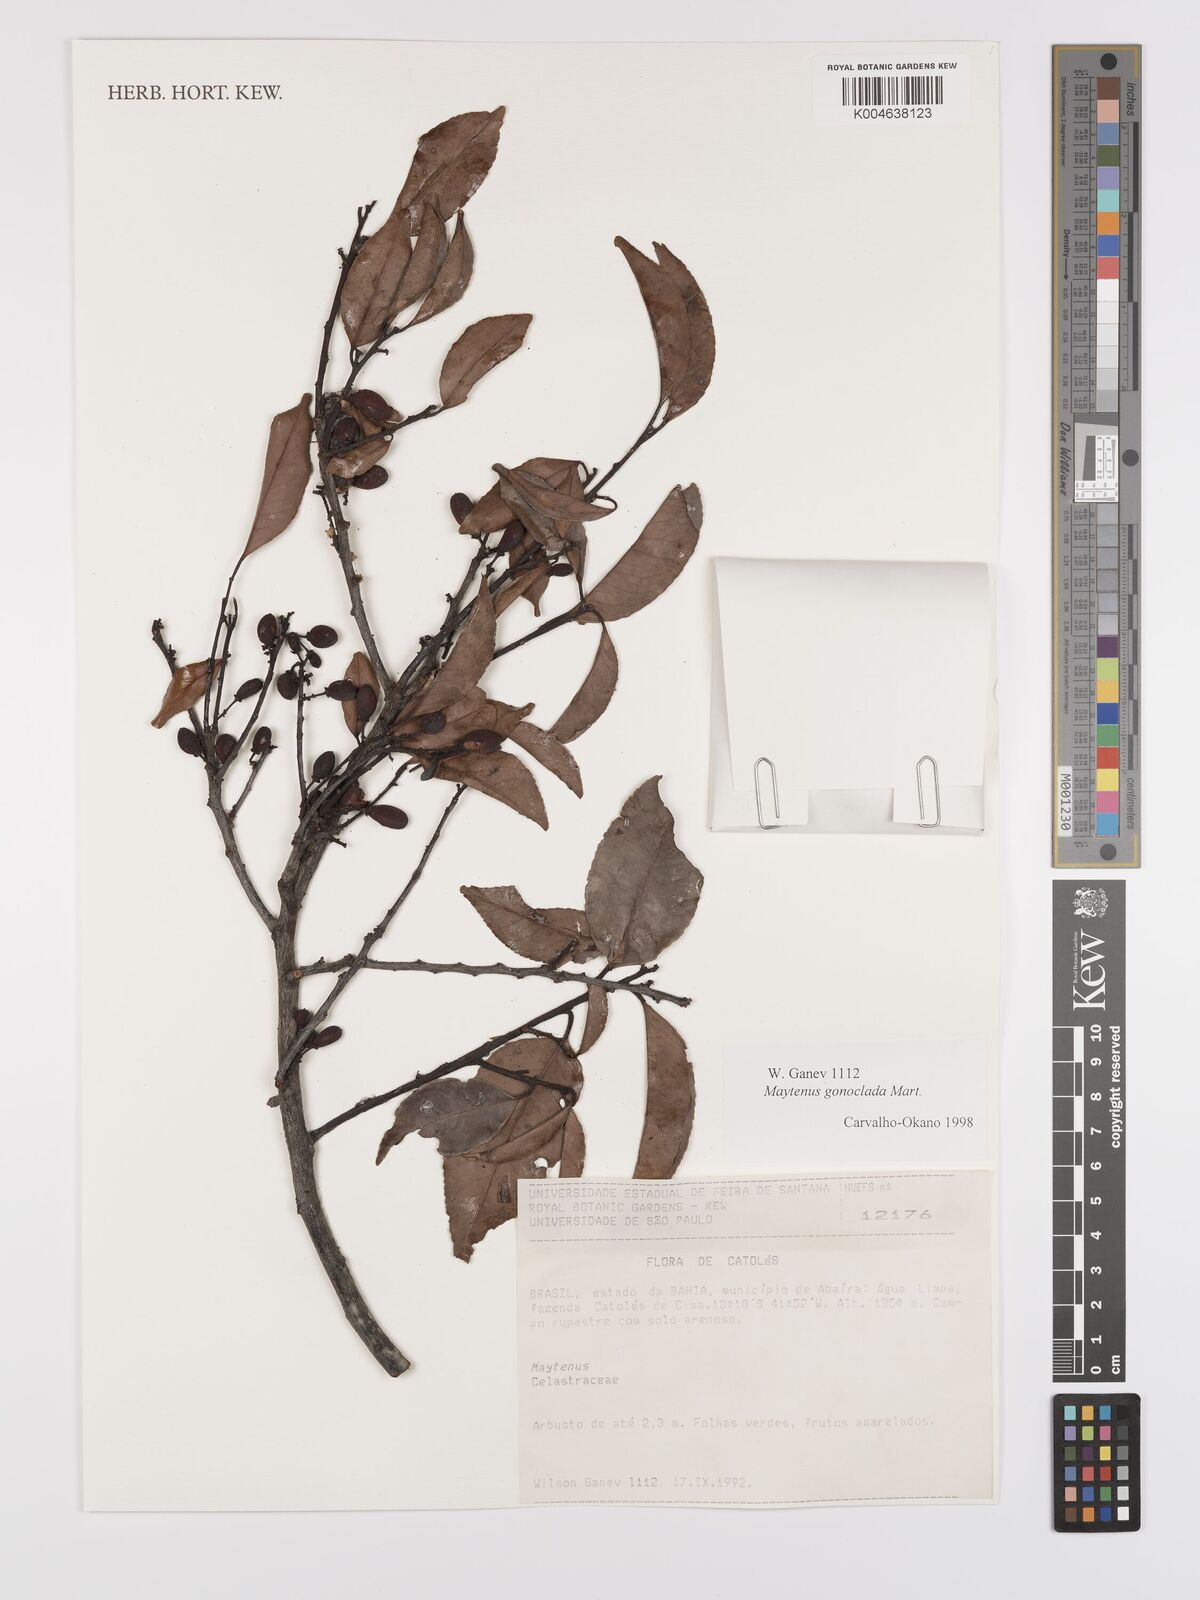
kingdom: Plantae
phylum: Tracheophyta
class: Magnoliopsida
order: Celastrales
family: Celastraceae
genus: Monteverdia
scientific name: Monteverdia gonoclada
